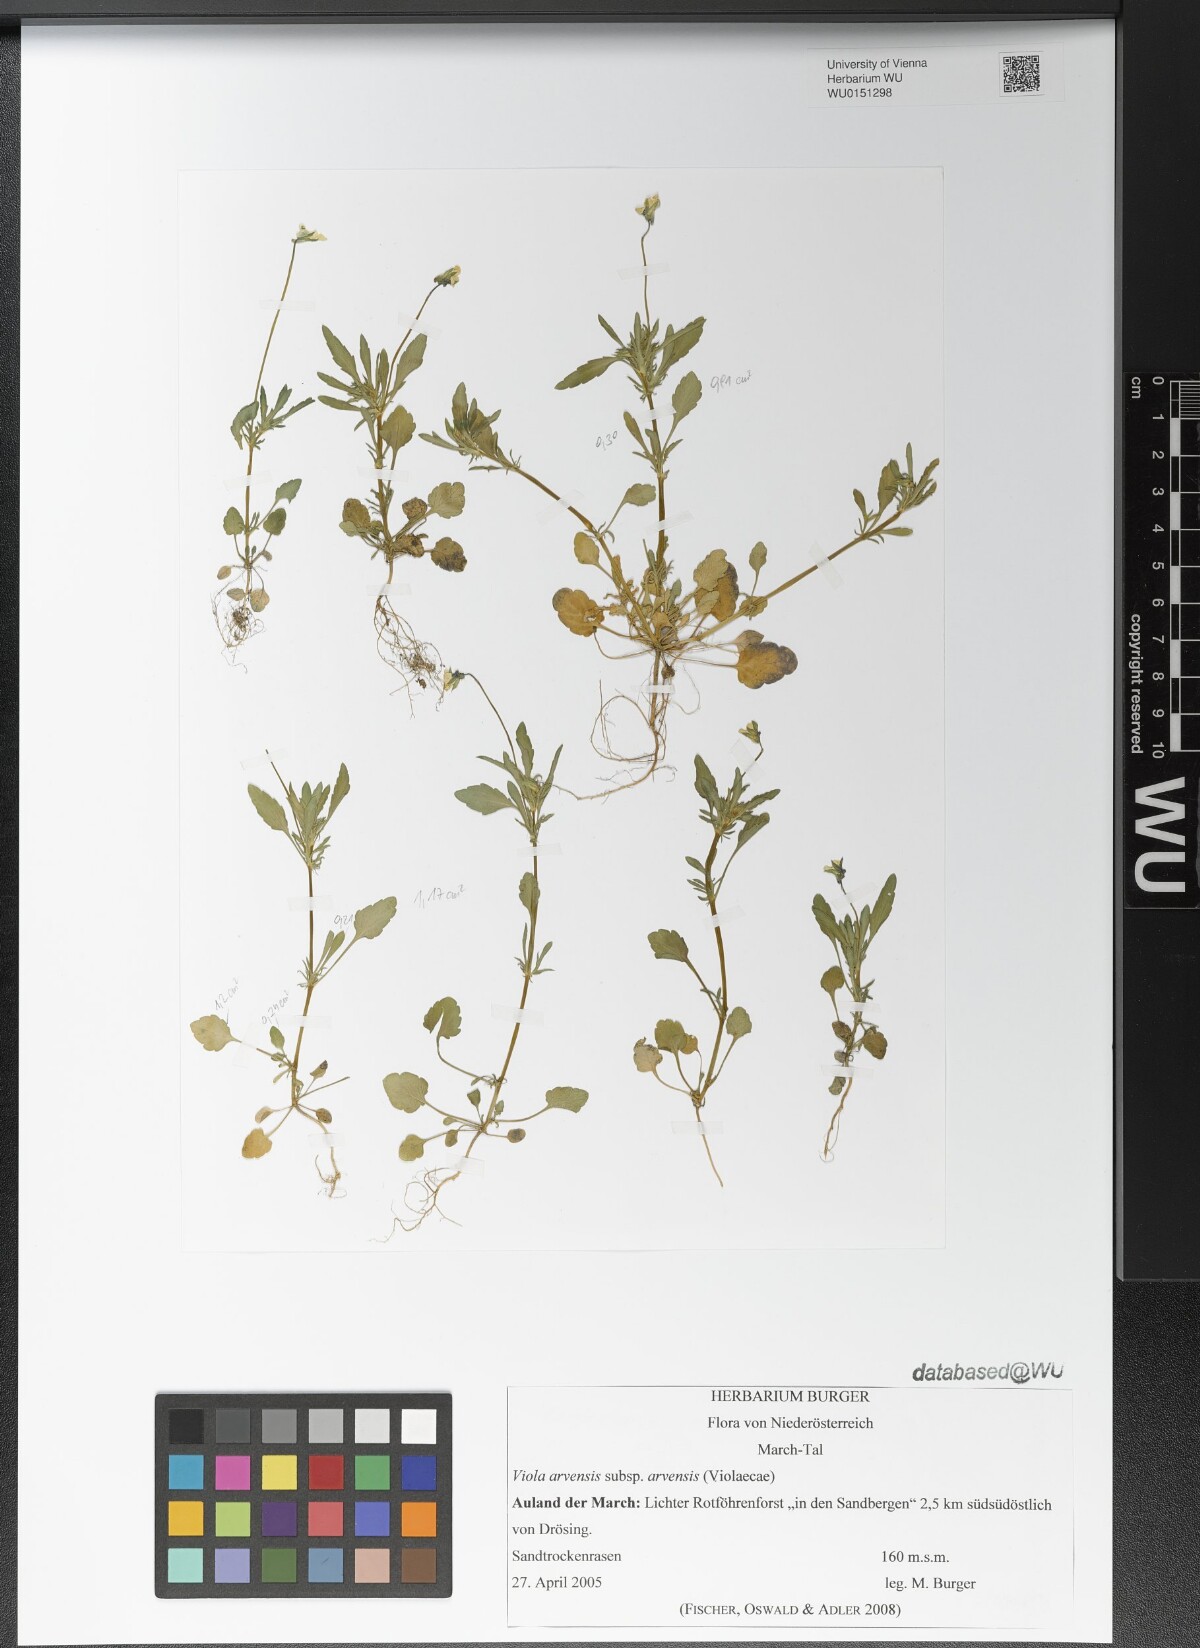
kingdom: Plantae
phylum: Tracheophyta
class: Magnoliopsida
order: Malpighiales
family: Violaceae
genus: Viola
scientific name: Viola arvensis
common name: Field pansy
